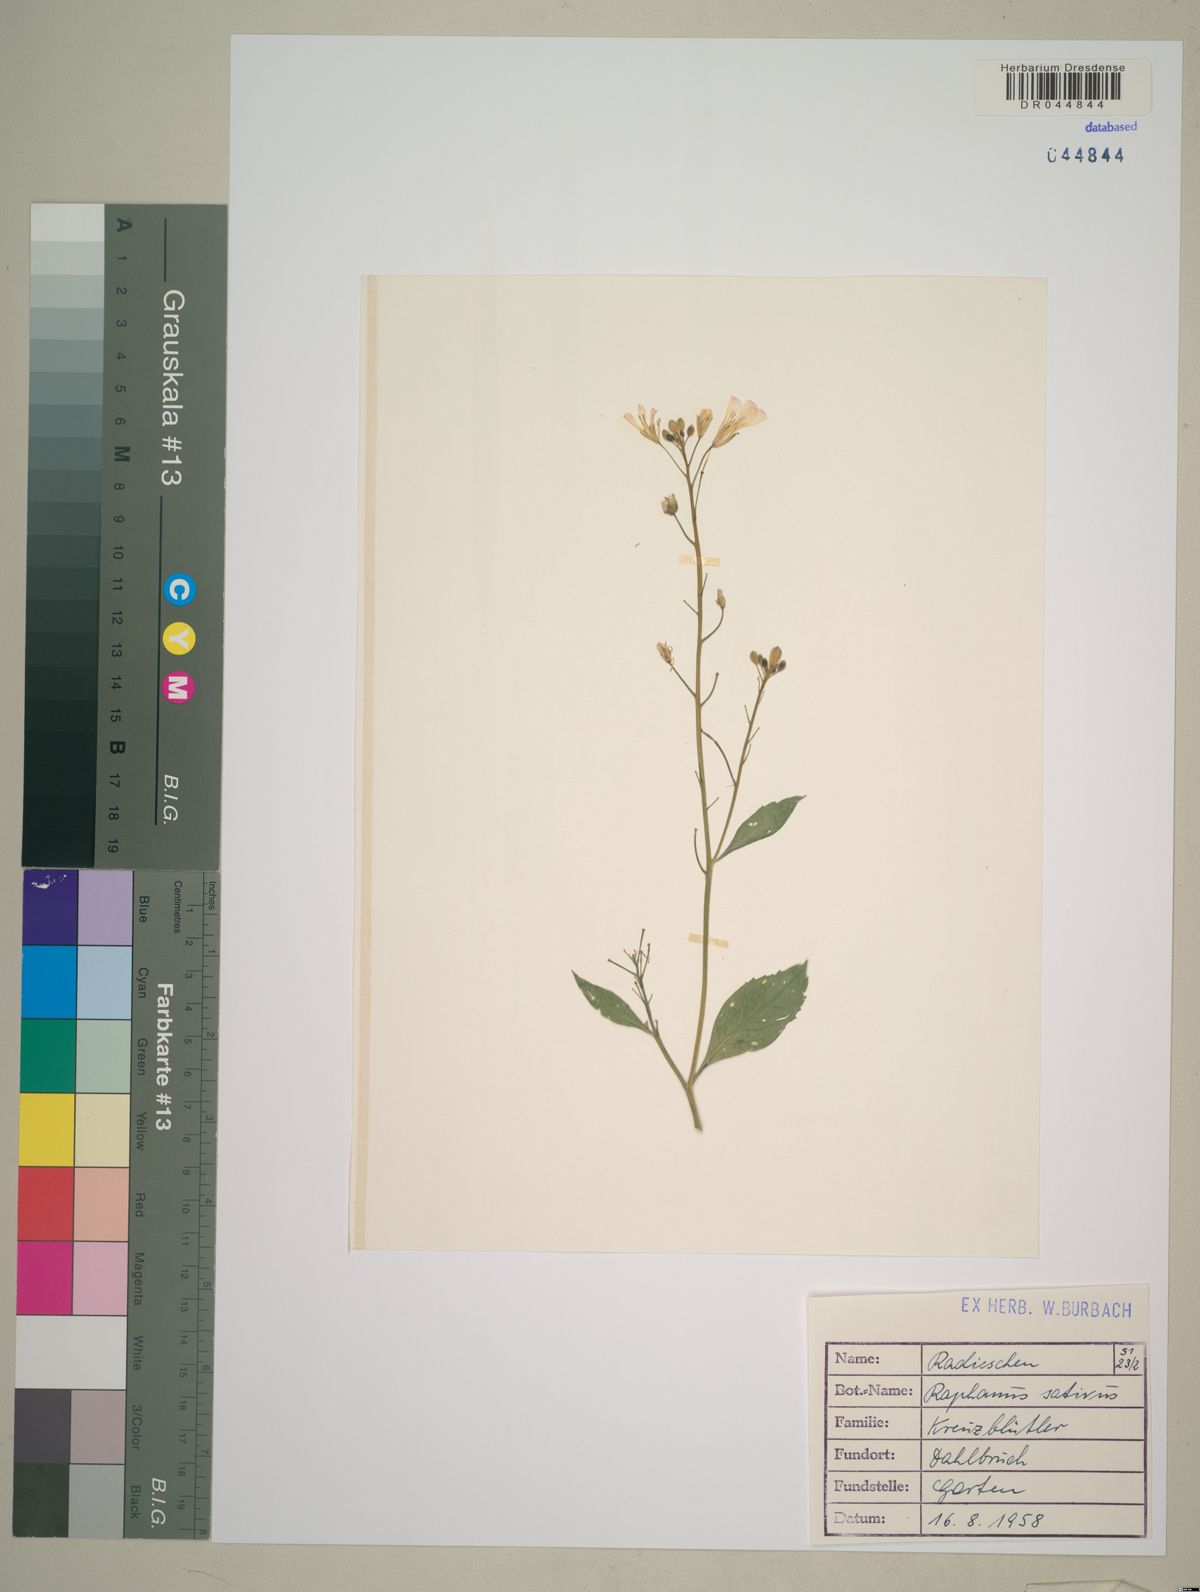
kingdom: Plantae
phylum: Tracheophyta
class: Magnoliopsida
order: Brassicales
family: Brassicaceae
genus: Raphanus
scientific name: Raphanus sativus
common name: Cultivated radish
